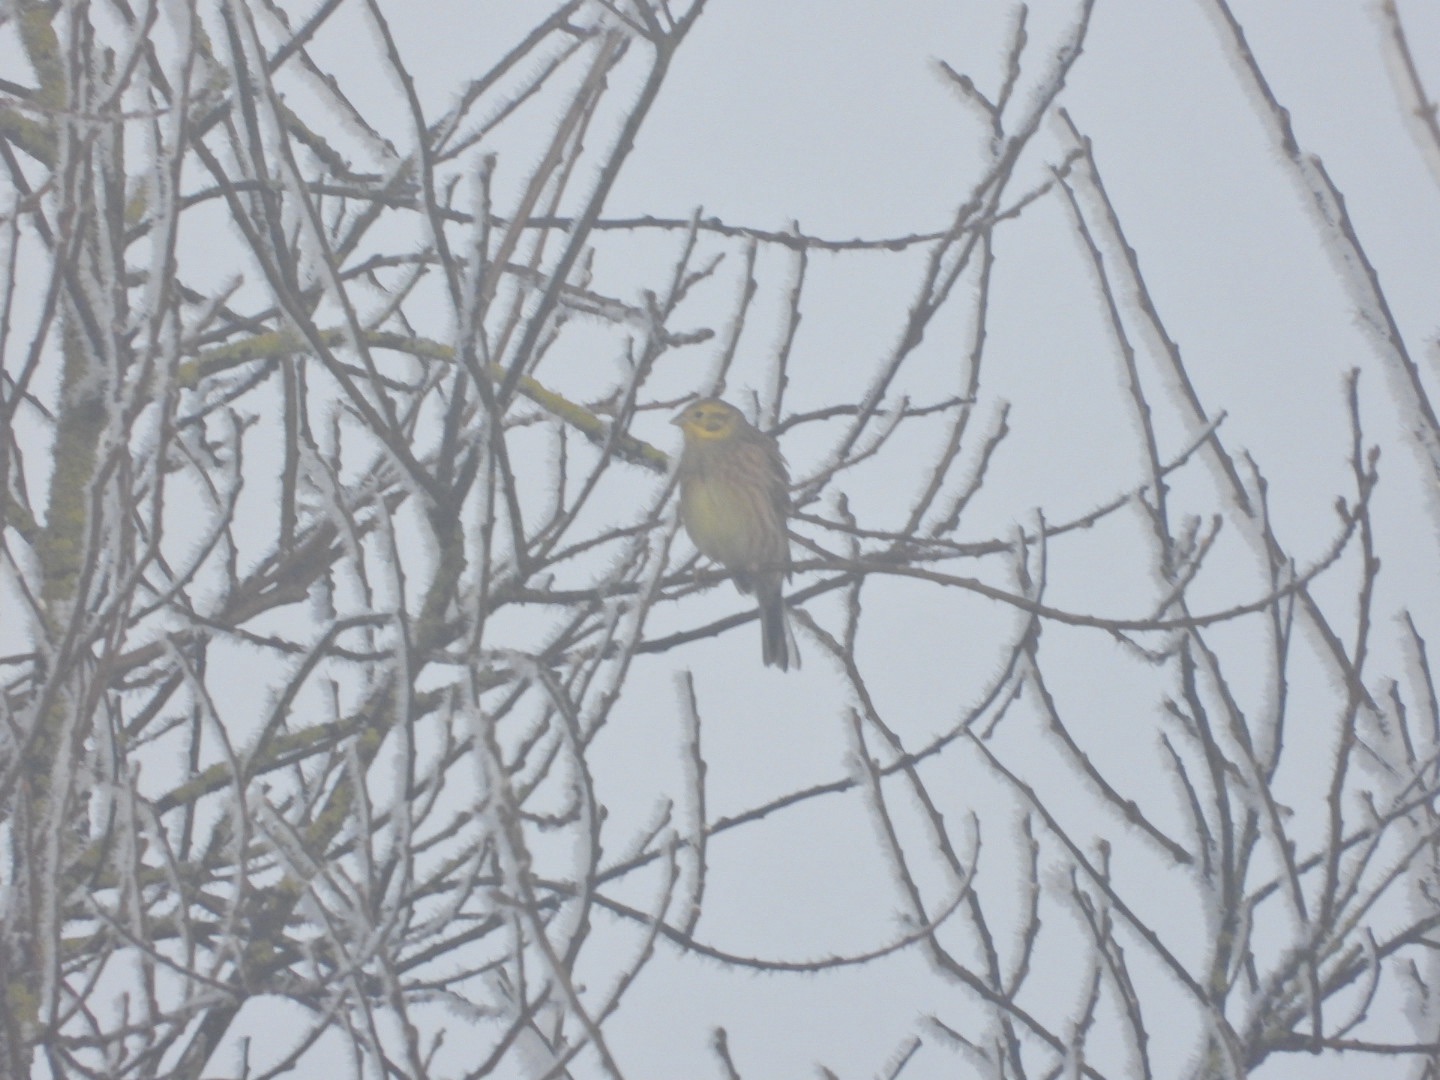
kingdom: Animalia
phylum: Chordata
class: Aves
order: Passeriformes
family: Emberizidae
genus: Emberiza
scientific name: Emberiza citrinella
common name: Gulspurv
